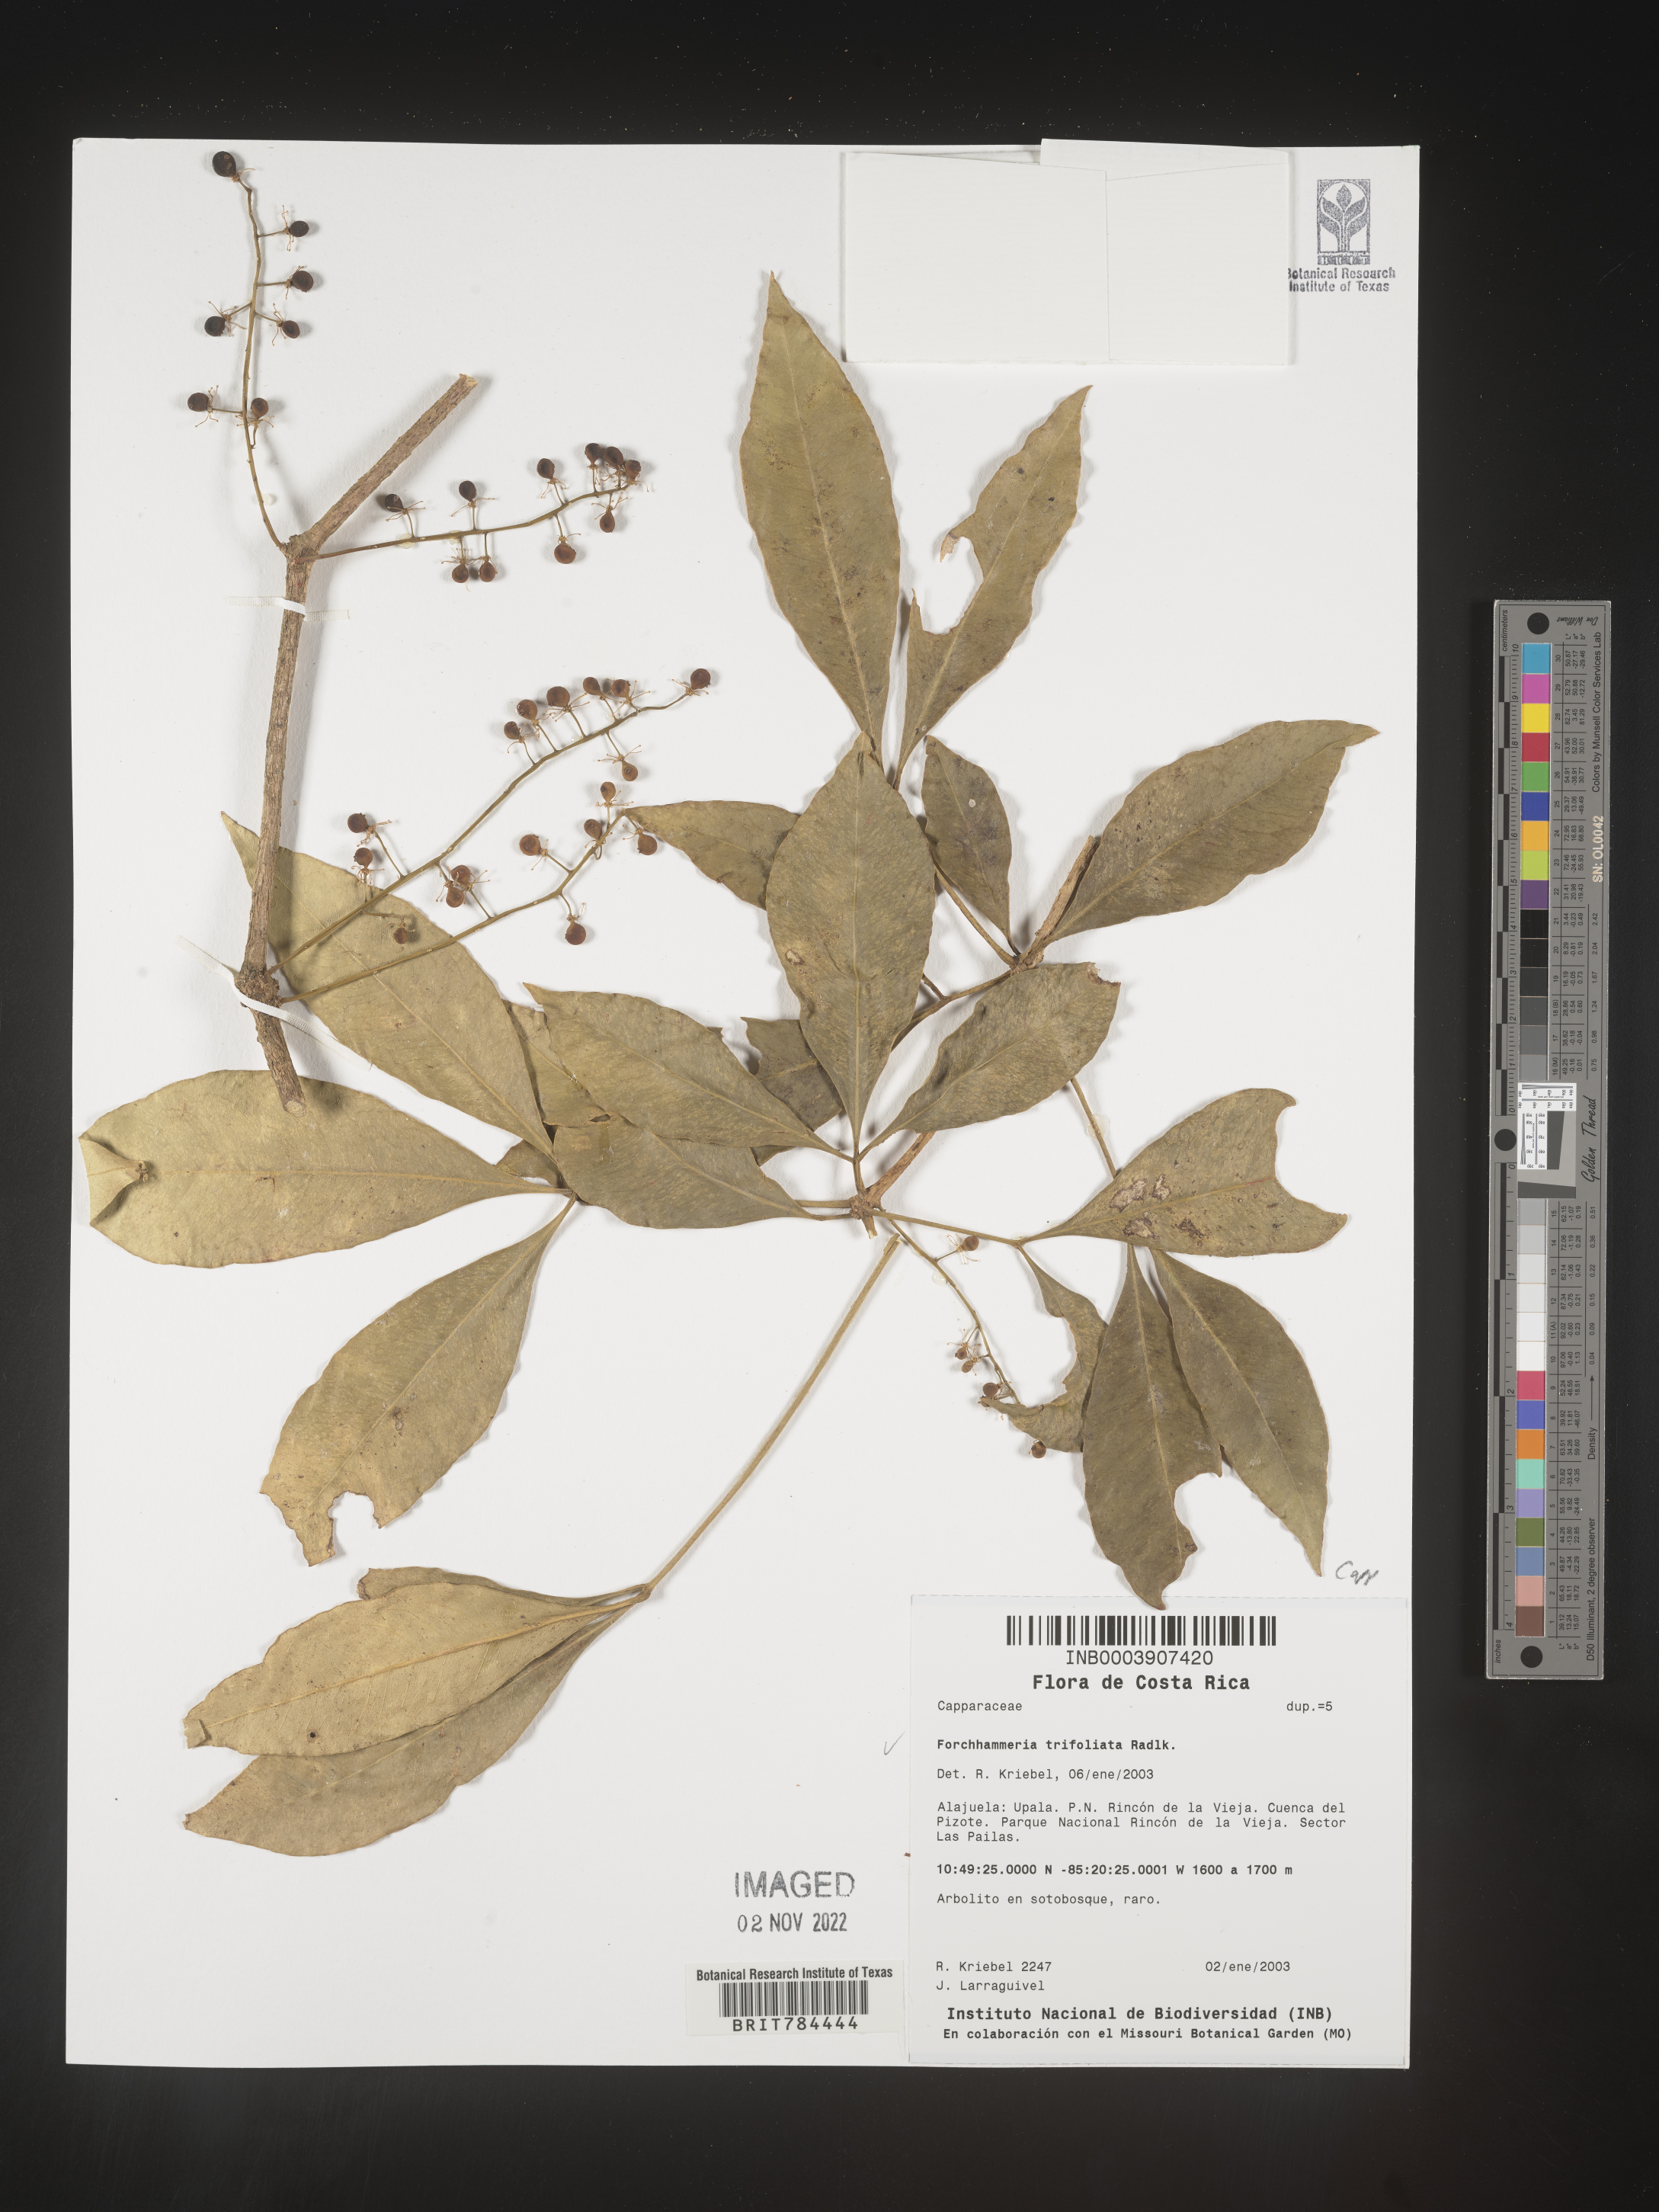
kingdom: Plantae
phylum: Tracheophyta
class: Magnoliopsida
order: Brassicales
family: Stixaceae
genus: Forchhammeria
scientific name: Forchhammeria
